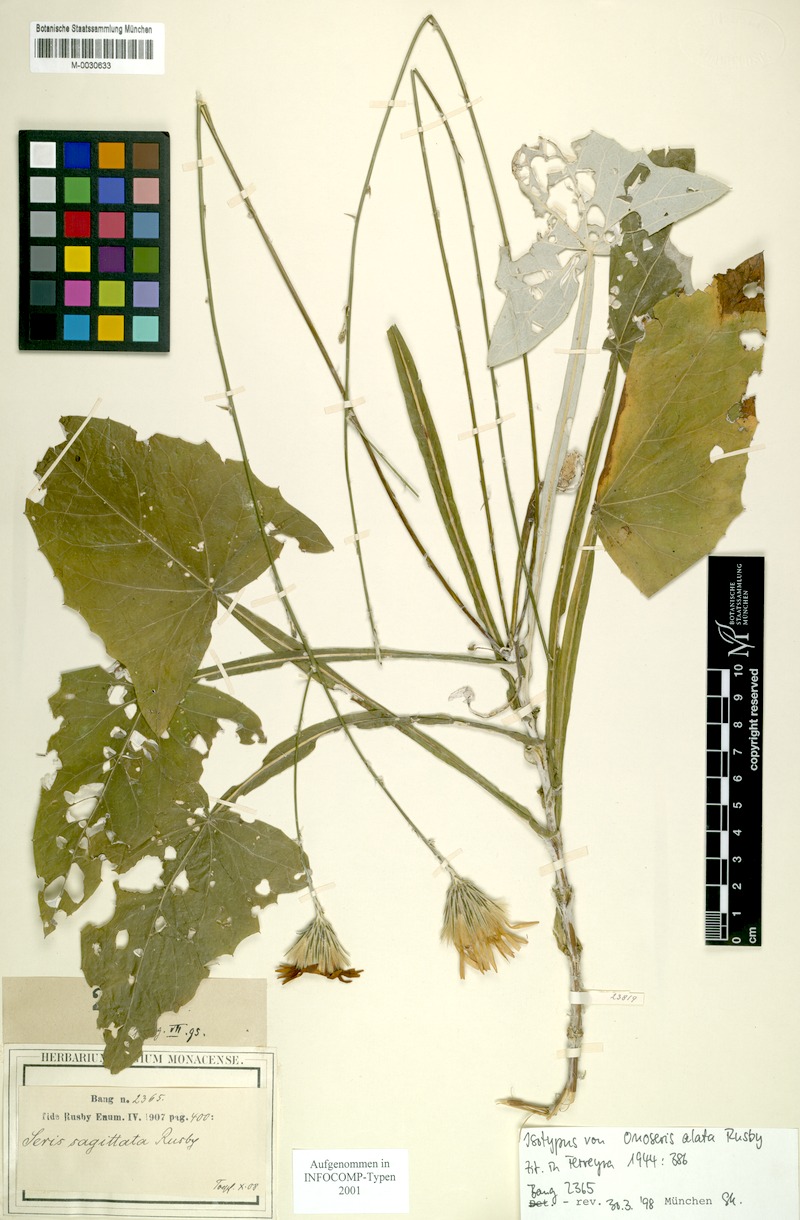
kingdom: Plantae
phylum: Tracheophyta
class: Magnoliopsida
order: Asterales
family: Asteraceae
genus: Onoseris
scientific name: Onoseris alata
